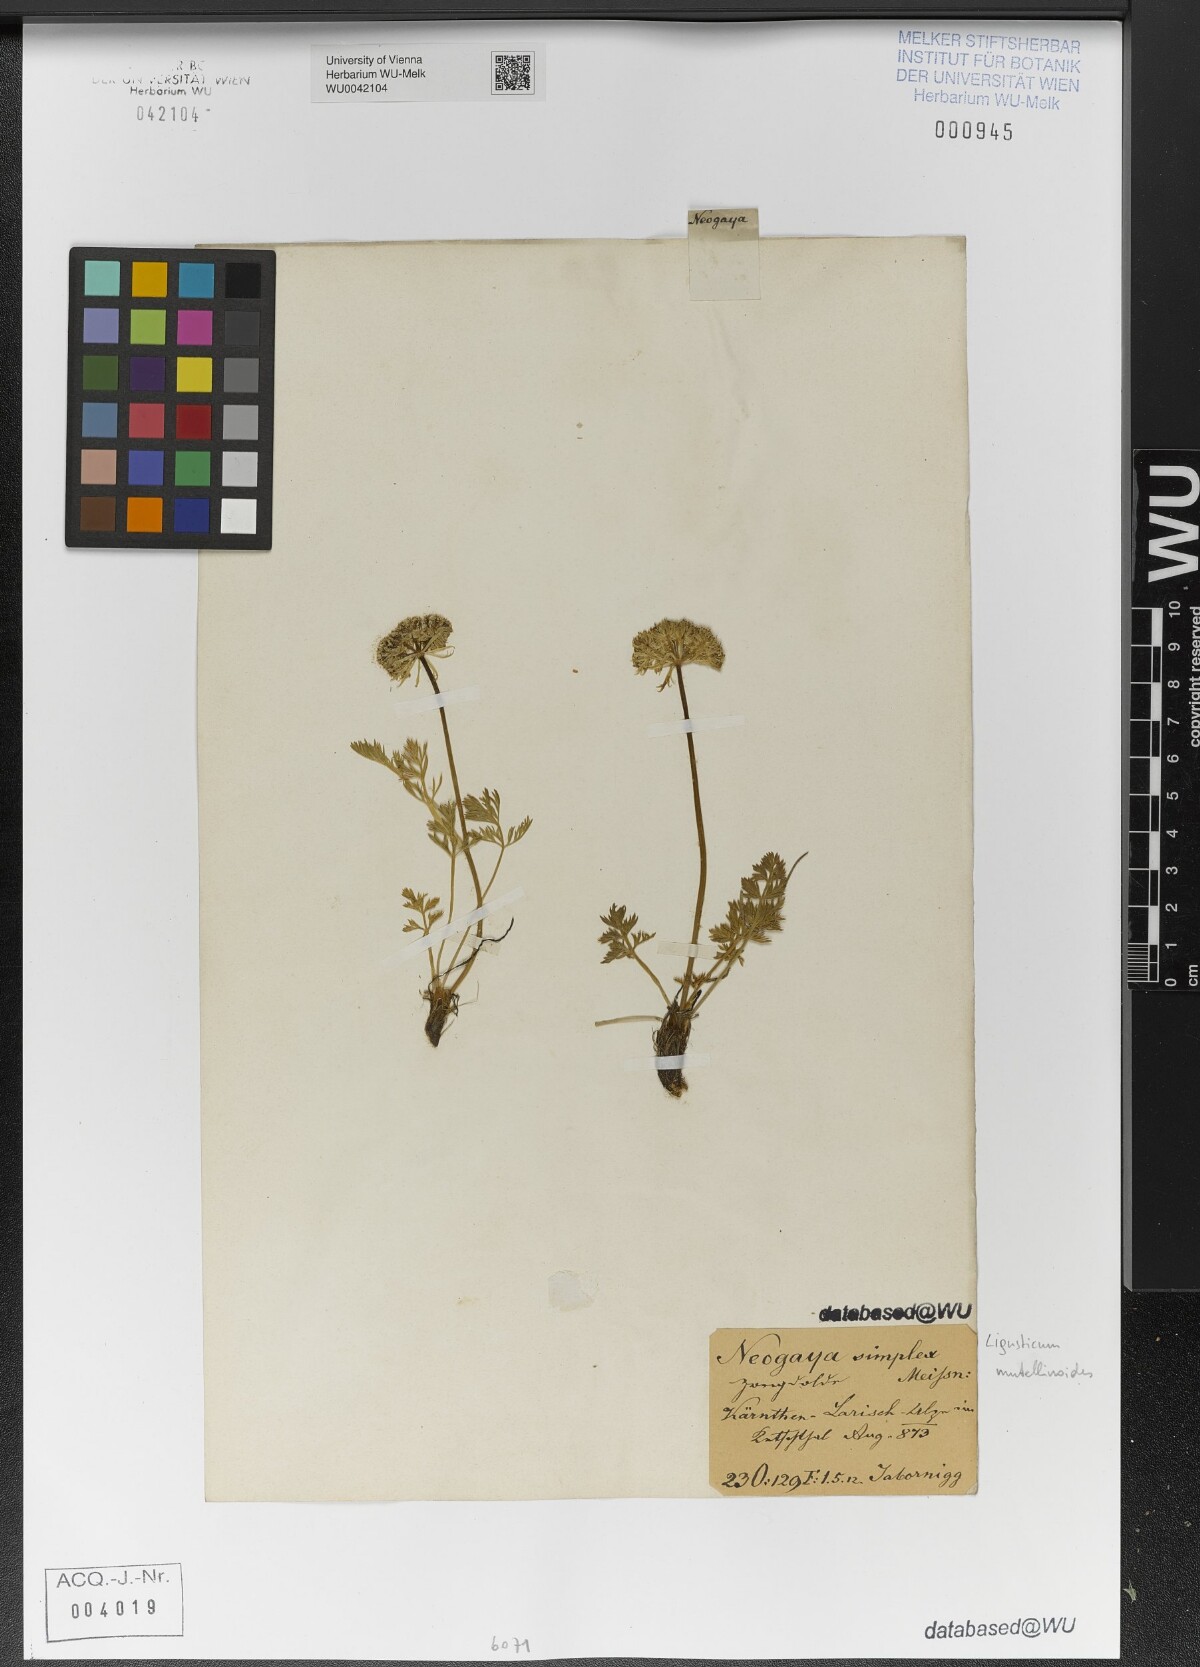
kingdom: Plantae
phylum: Tracheophyta
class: Magnoliopsida
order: Apiales
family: Apiaceae
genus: Pachypleurum
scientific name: Pachypleurum mutellinoides
